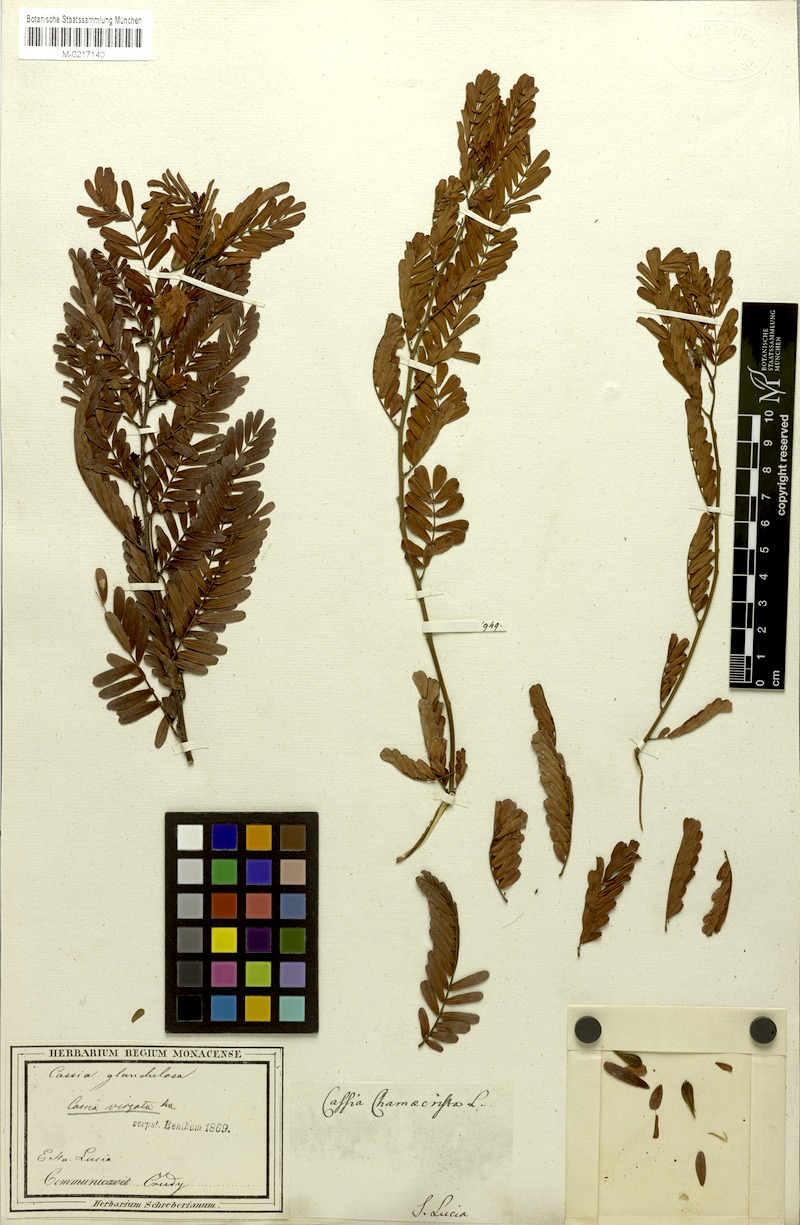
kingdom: Plantae
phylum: Tracheophyta
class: Magnoliopsida
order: Fabales
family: Fabaceae
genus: Chamaecrista
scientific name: Chamaecrista glandulosa
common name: Wild peas
